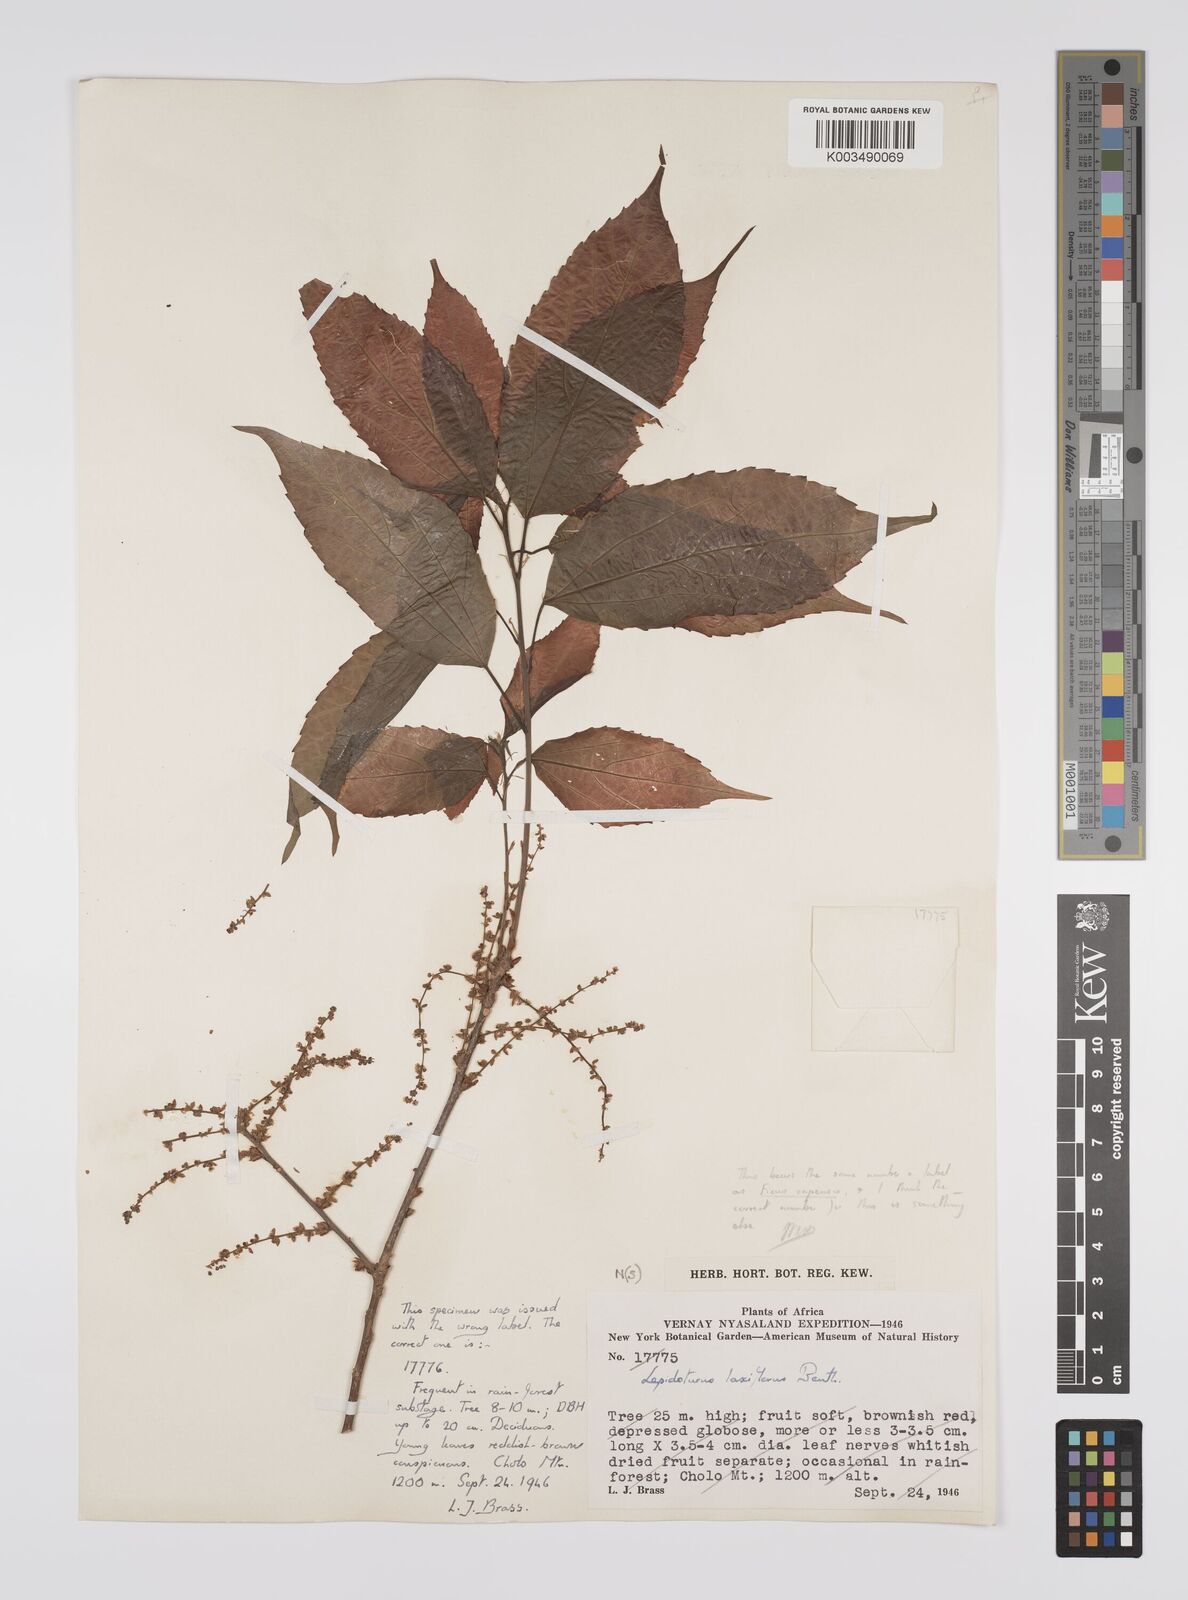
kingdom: Plantae
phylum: Tracheophyta
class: Magnoliopsida
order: Malpighiales
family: Euphorbiaceae
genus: Alchornea
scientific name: Alchornea laxiflora
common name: Lowveld bead-string
